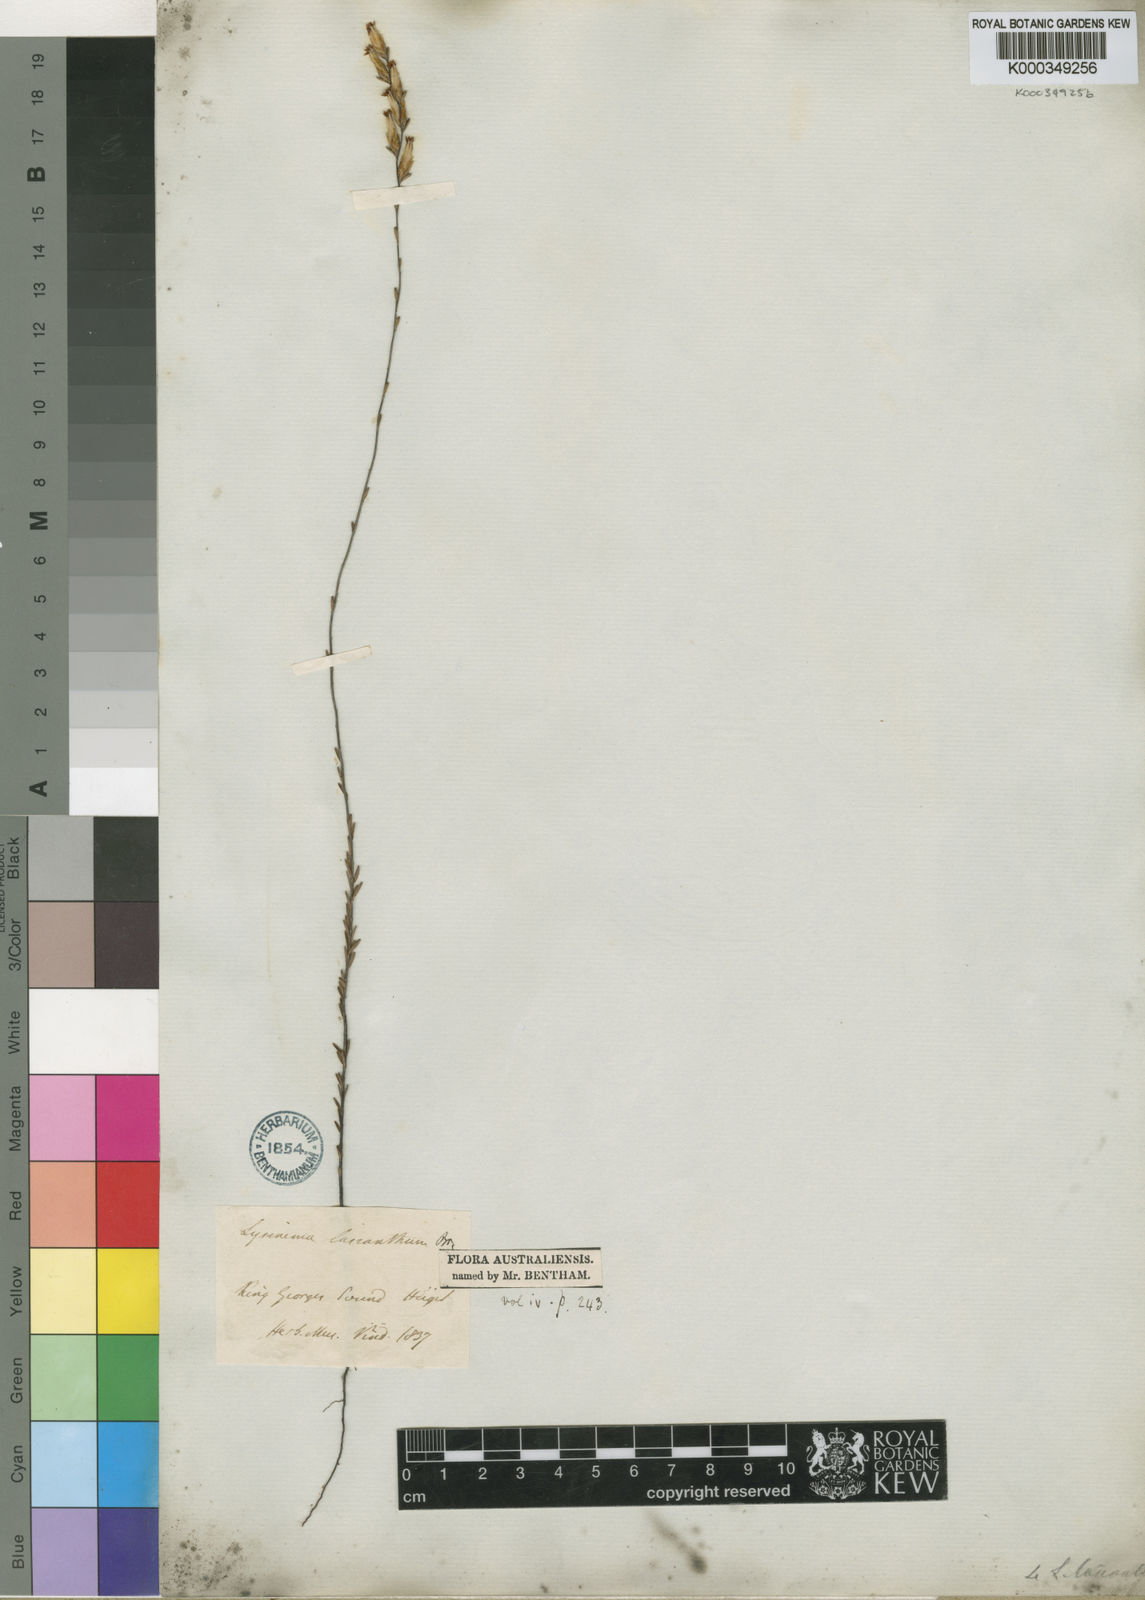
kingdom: Plantae
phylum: Tracheophyta
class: Magnoliopsida
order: Ericales
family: Ericaceae
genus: Lysinema
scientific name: Lysinema lasianthum
